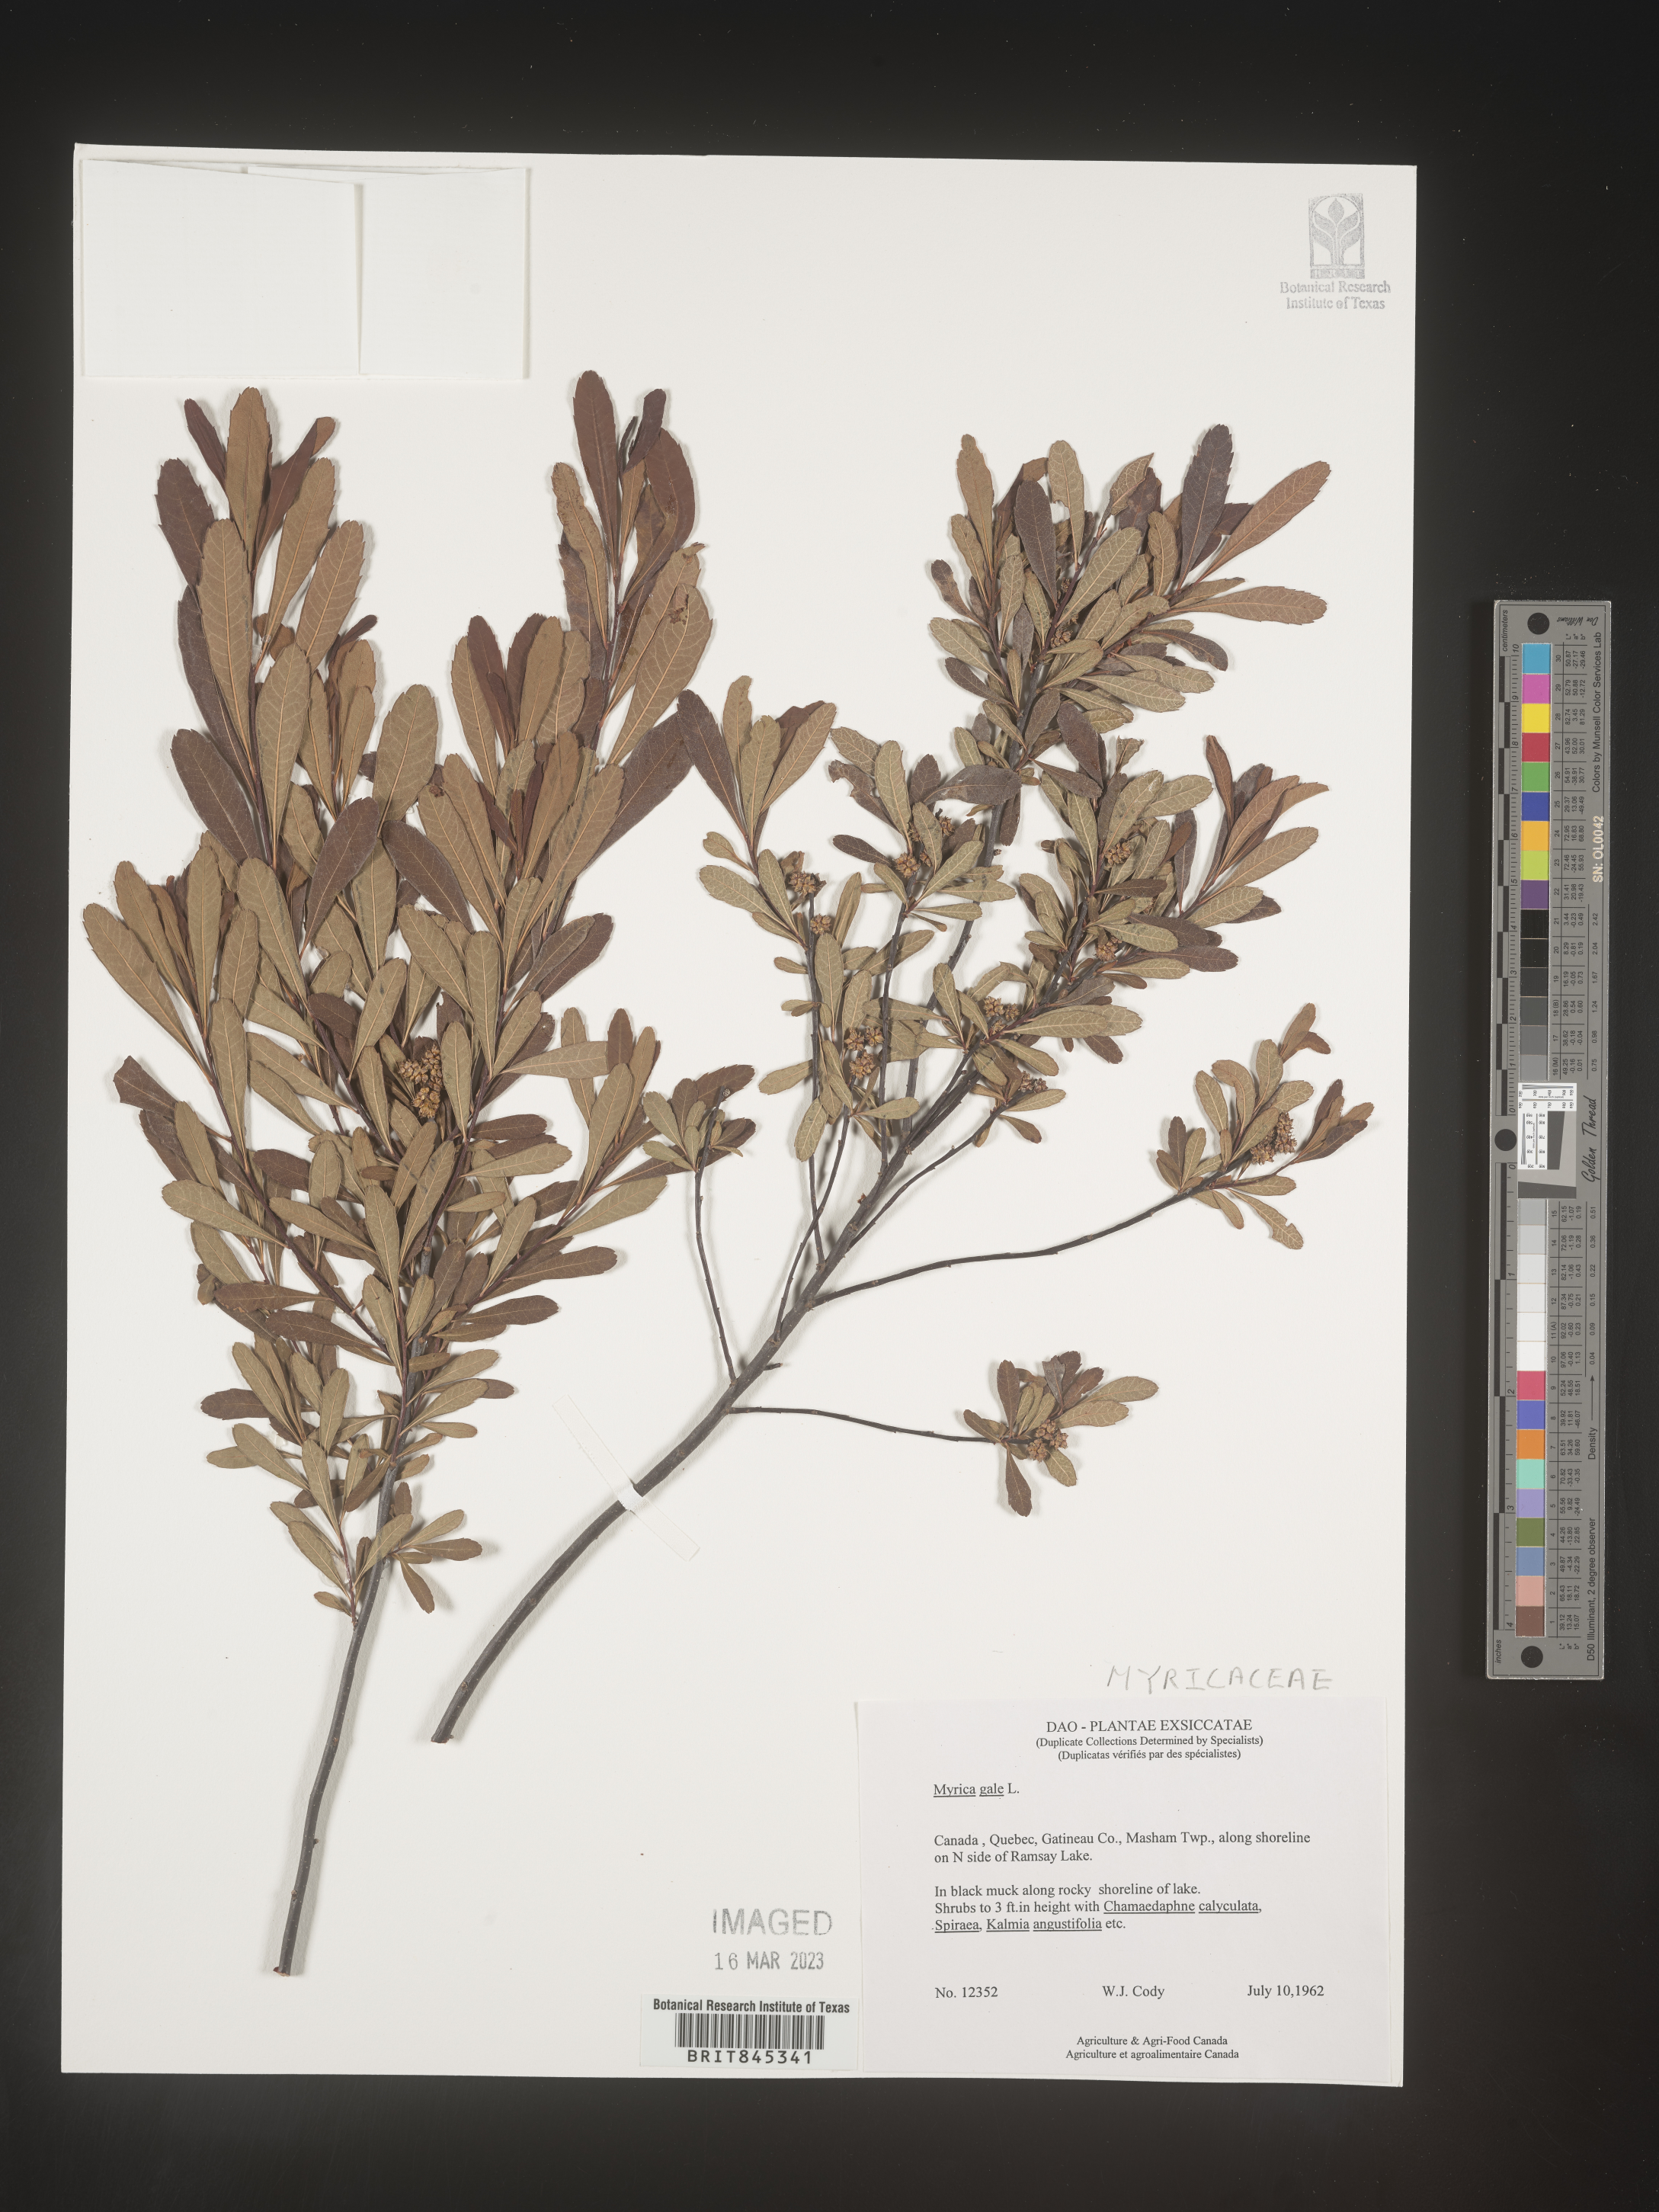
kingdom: Plantae
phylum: Tracheophyta
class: Magnoliopsida
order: Fagales
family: Myricaceae
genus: Myrica
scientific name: Myrica gale
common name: Sweet gale
